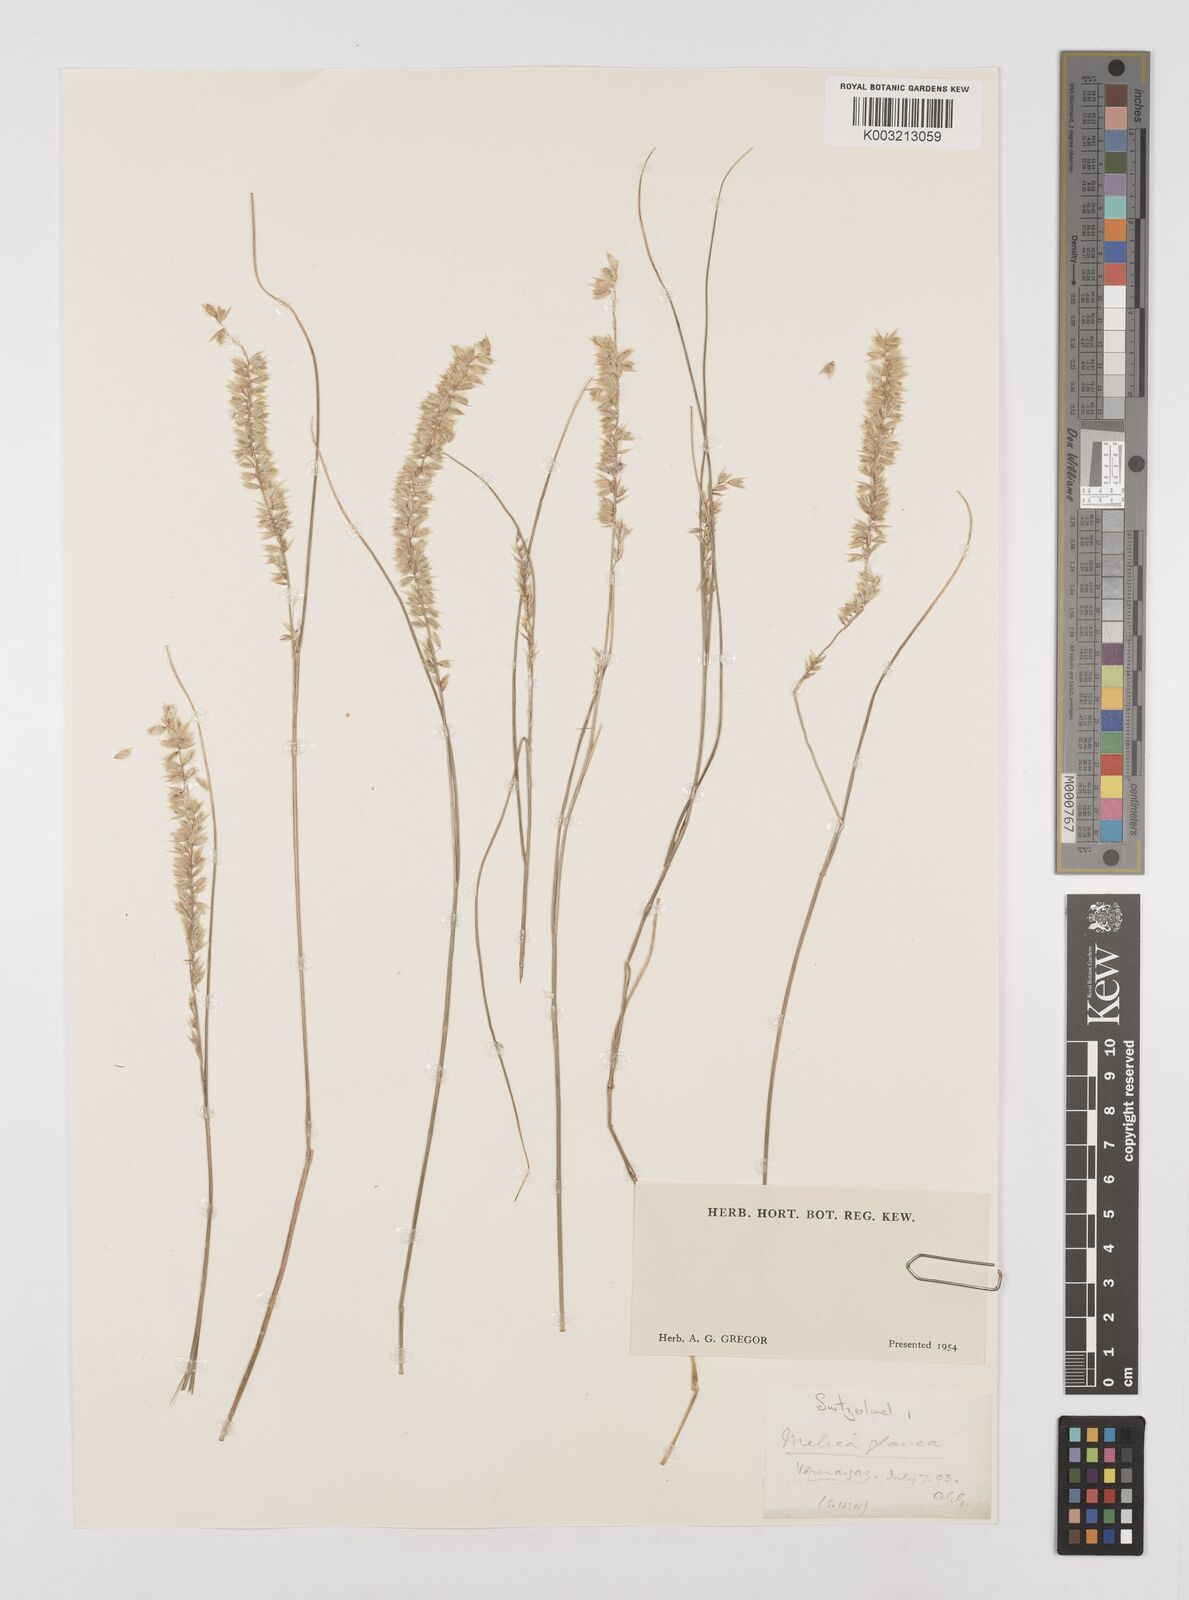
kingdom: Plantae
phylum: Tracheophyta
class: Liliopsida
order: Poales
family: Poaceae
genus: Melica
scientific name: Melica ciliata
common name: Hairy melicgrass
